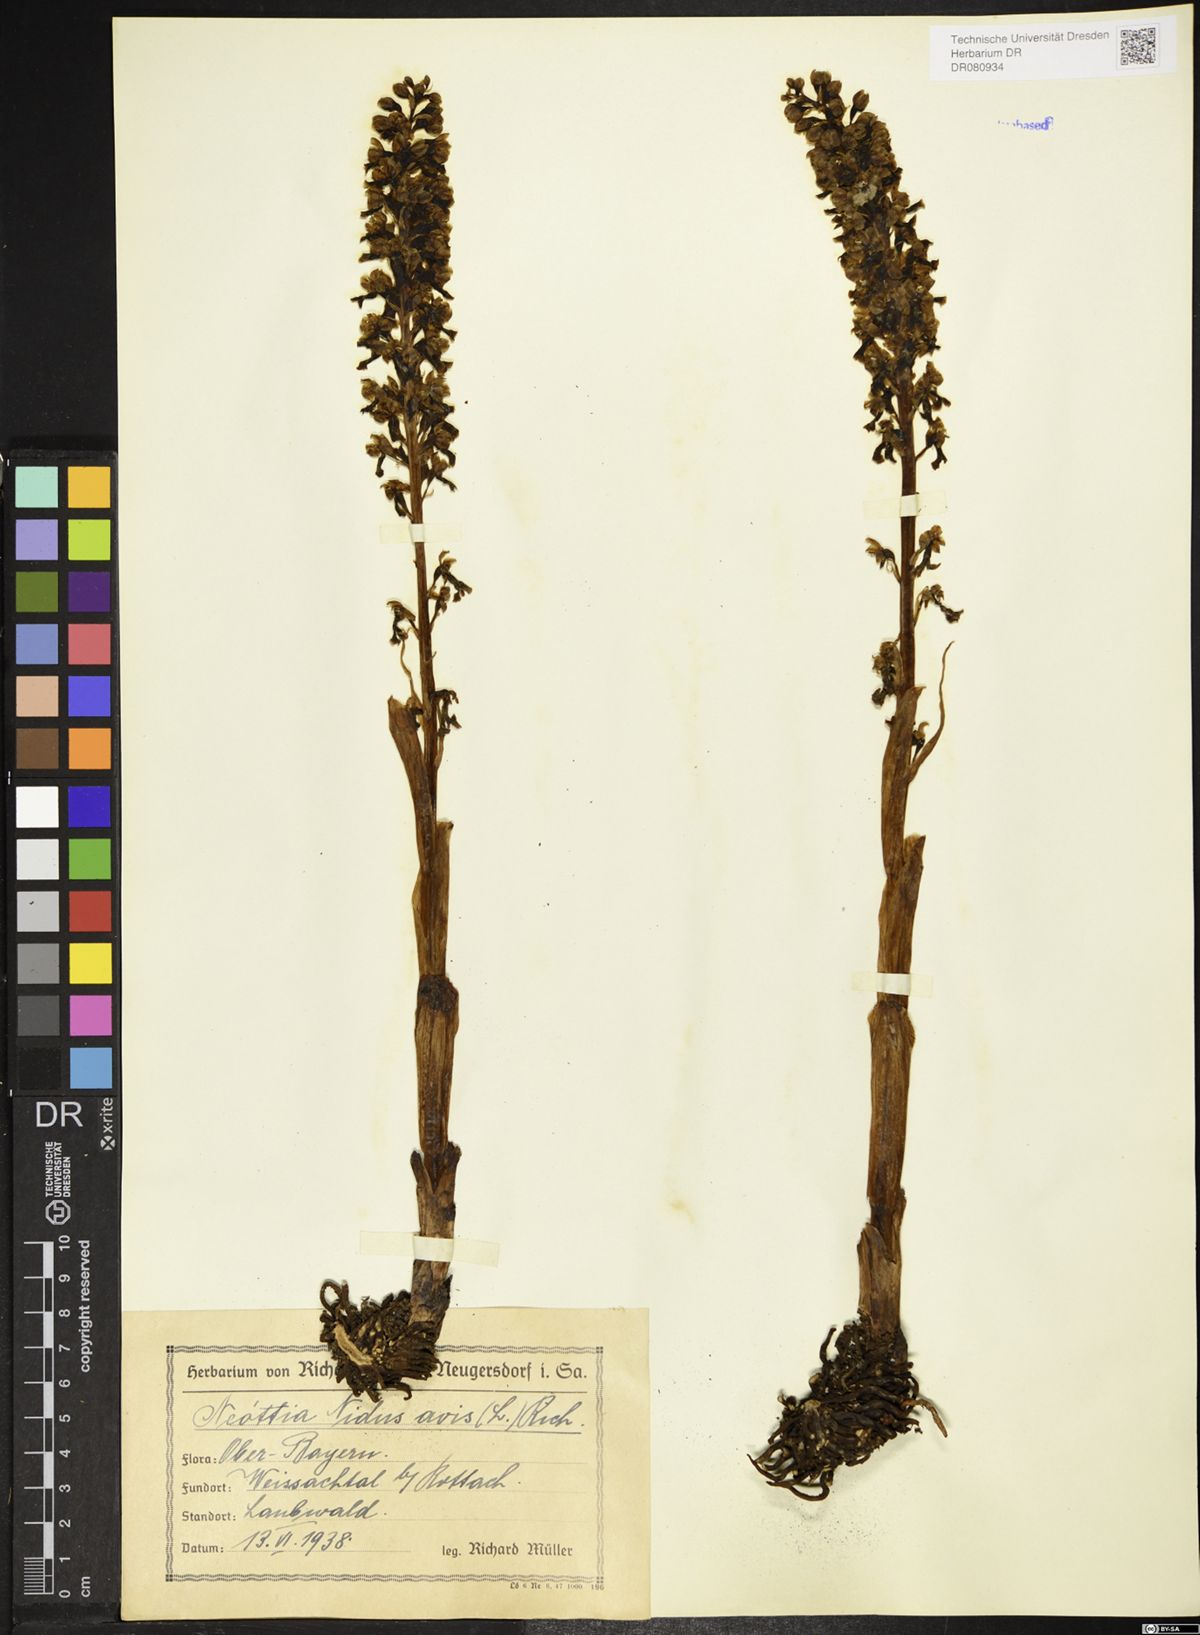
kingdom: Plantae
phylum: Tracheophyta
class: Liliopsida
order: Asparagales
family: Orchidaceae
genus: Neottia
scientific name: Neottia nidus-avis
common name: Bird's-nest orchid
